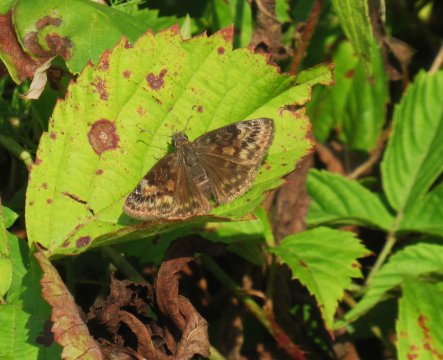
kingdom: Animalia
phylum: Arthropoda
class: Insecta
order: Lepidoptera
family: Hesperiidae
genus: Gesta
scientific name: Gesta
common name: Wild Indigo Duskywing
